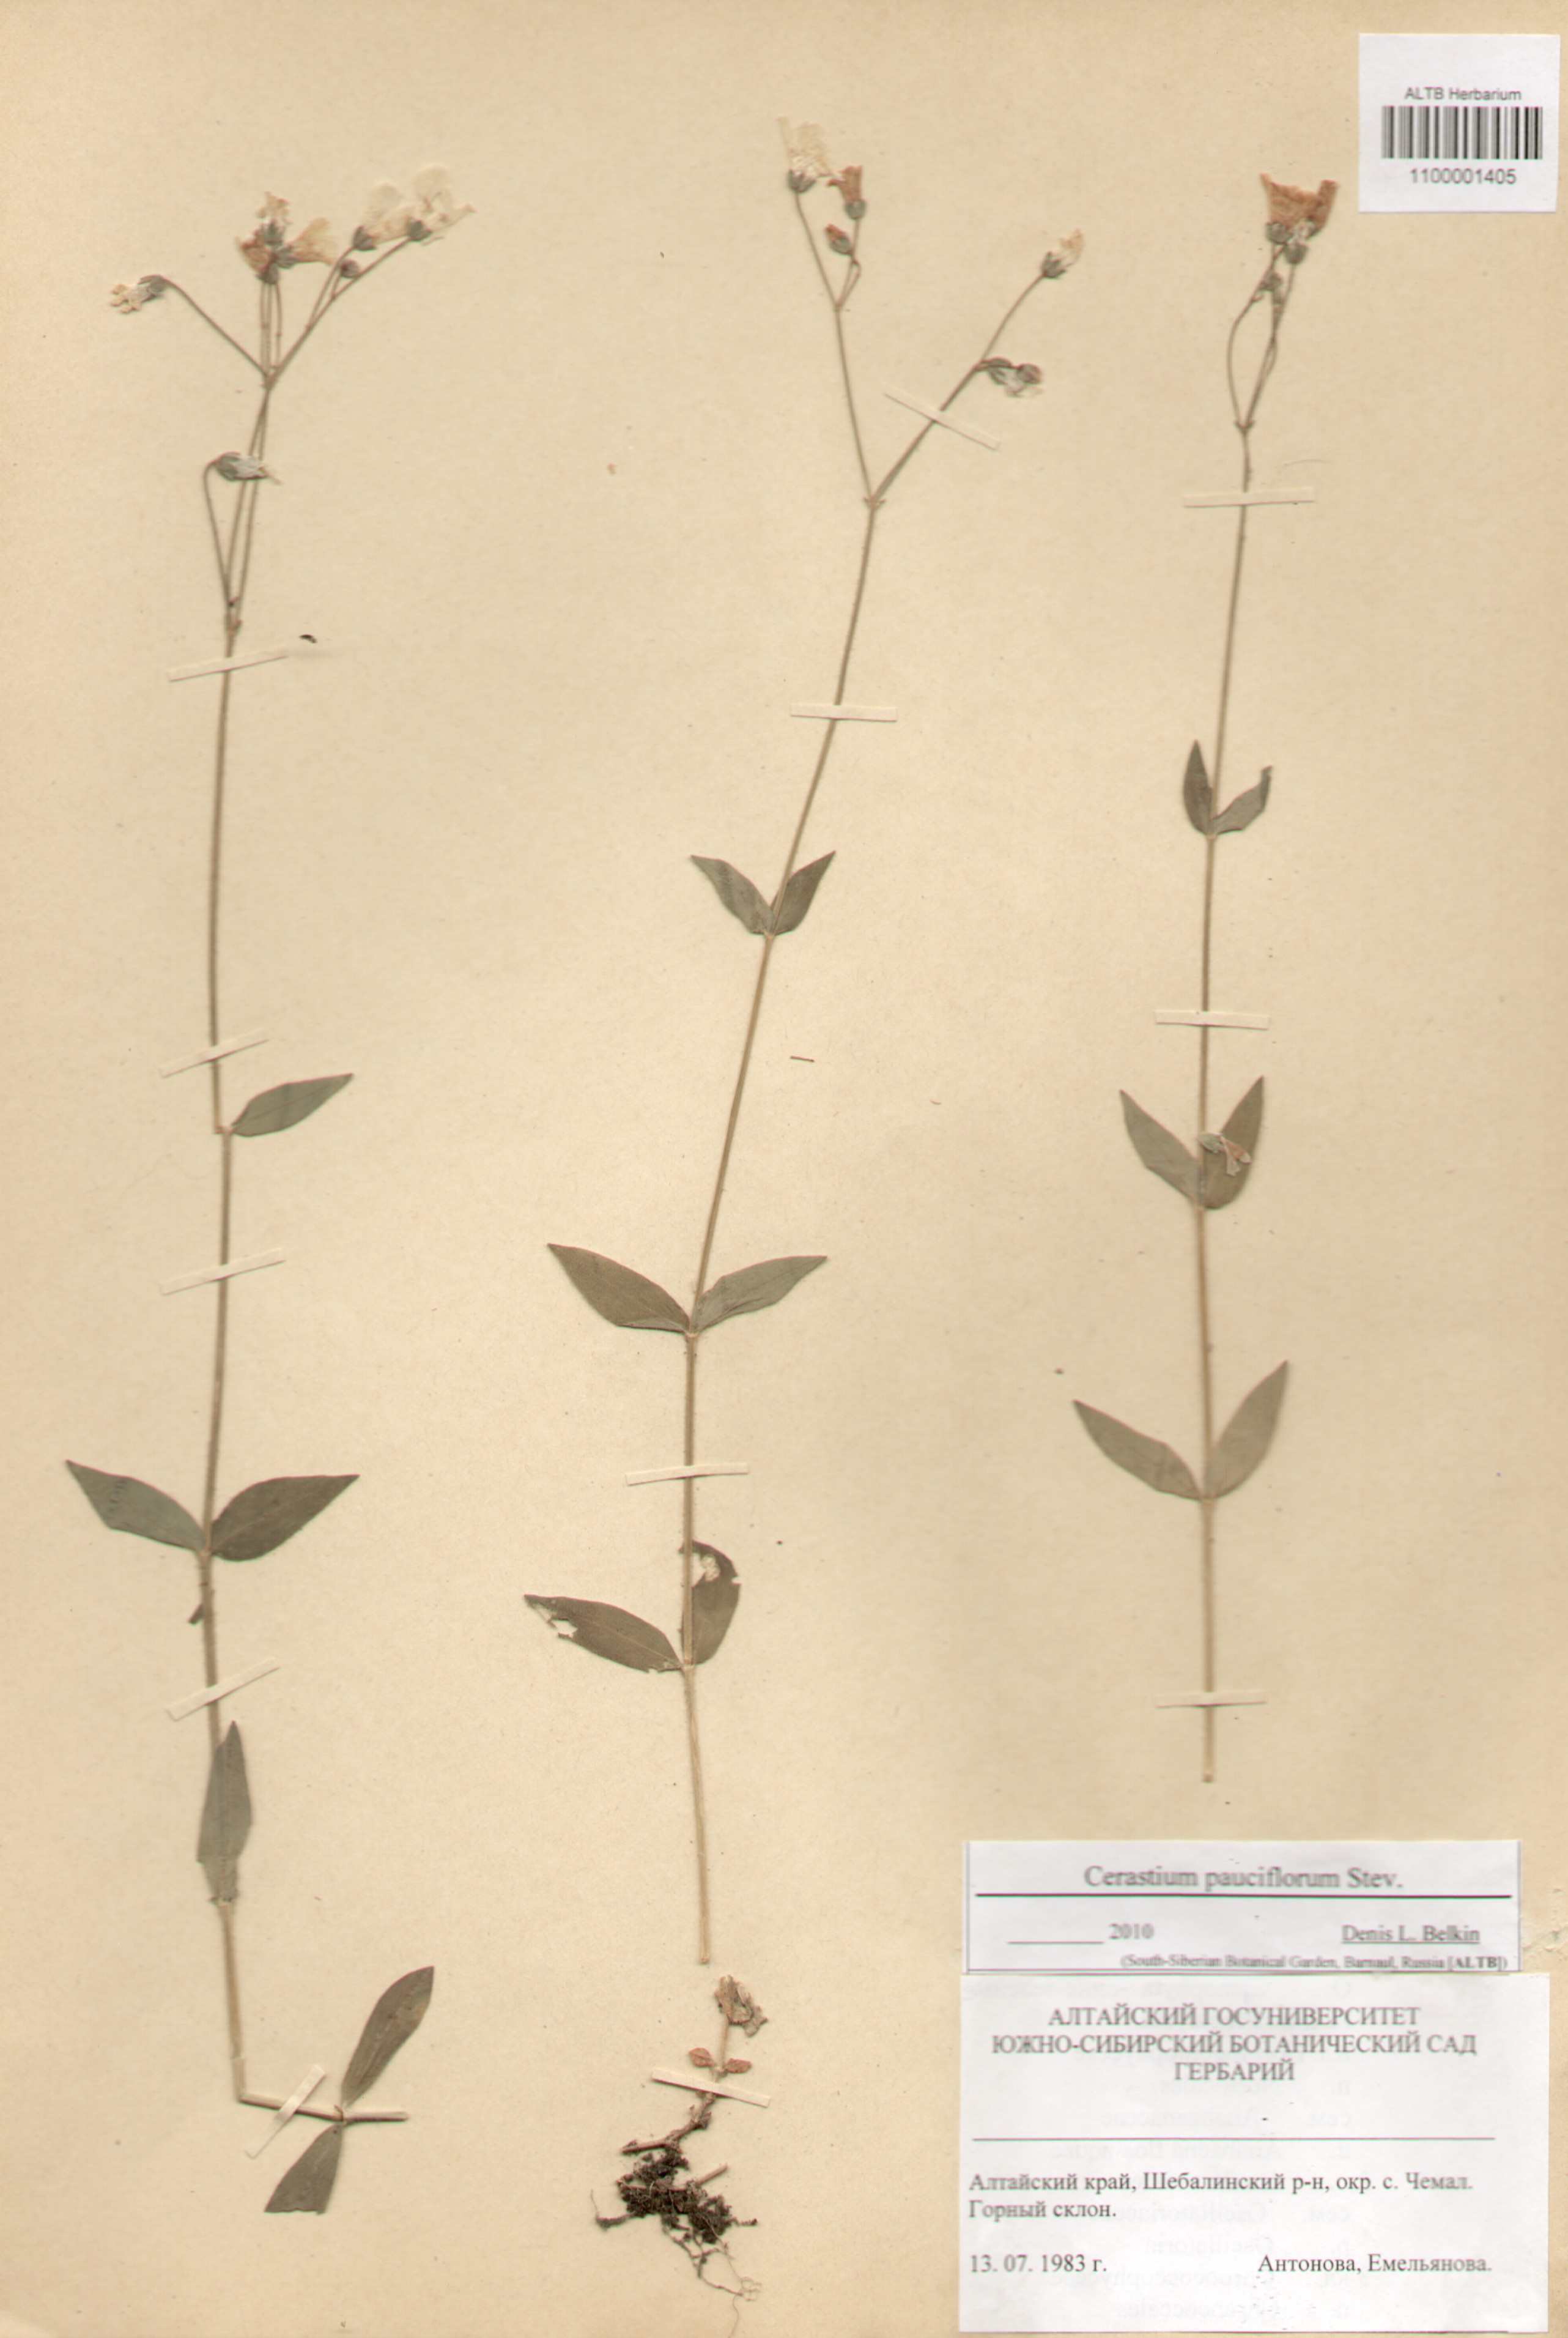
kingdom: Plantae
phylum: Tracheophyta
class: Magnoliopsida
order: Caryophyllales
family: Caryophyllaceae
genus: Cerastium
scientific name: Cerastium pauciflorum
